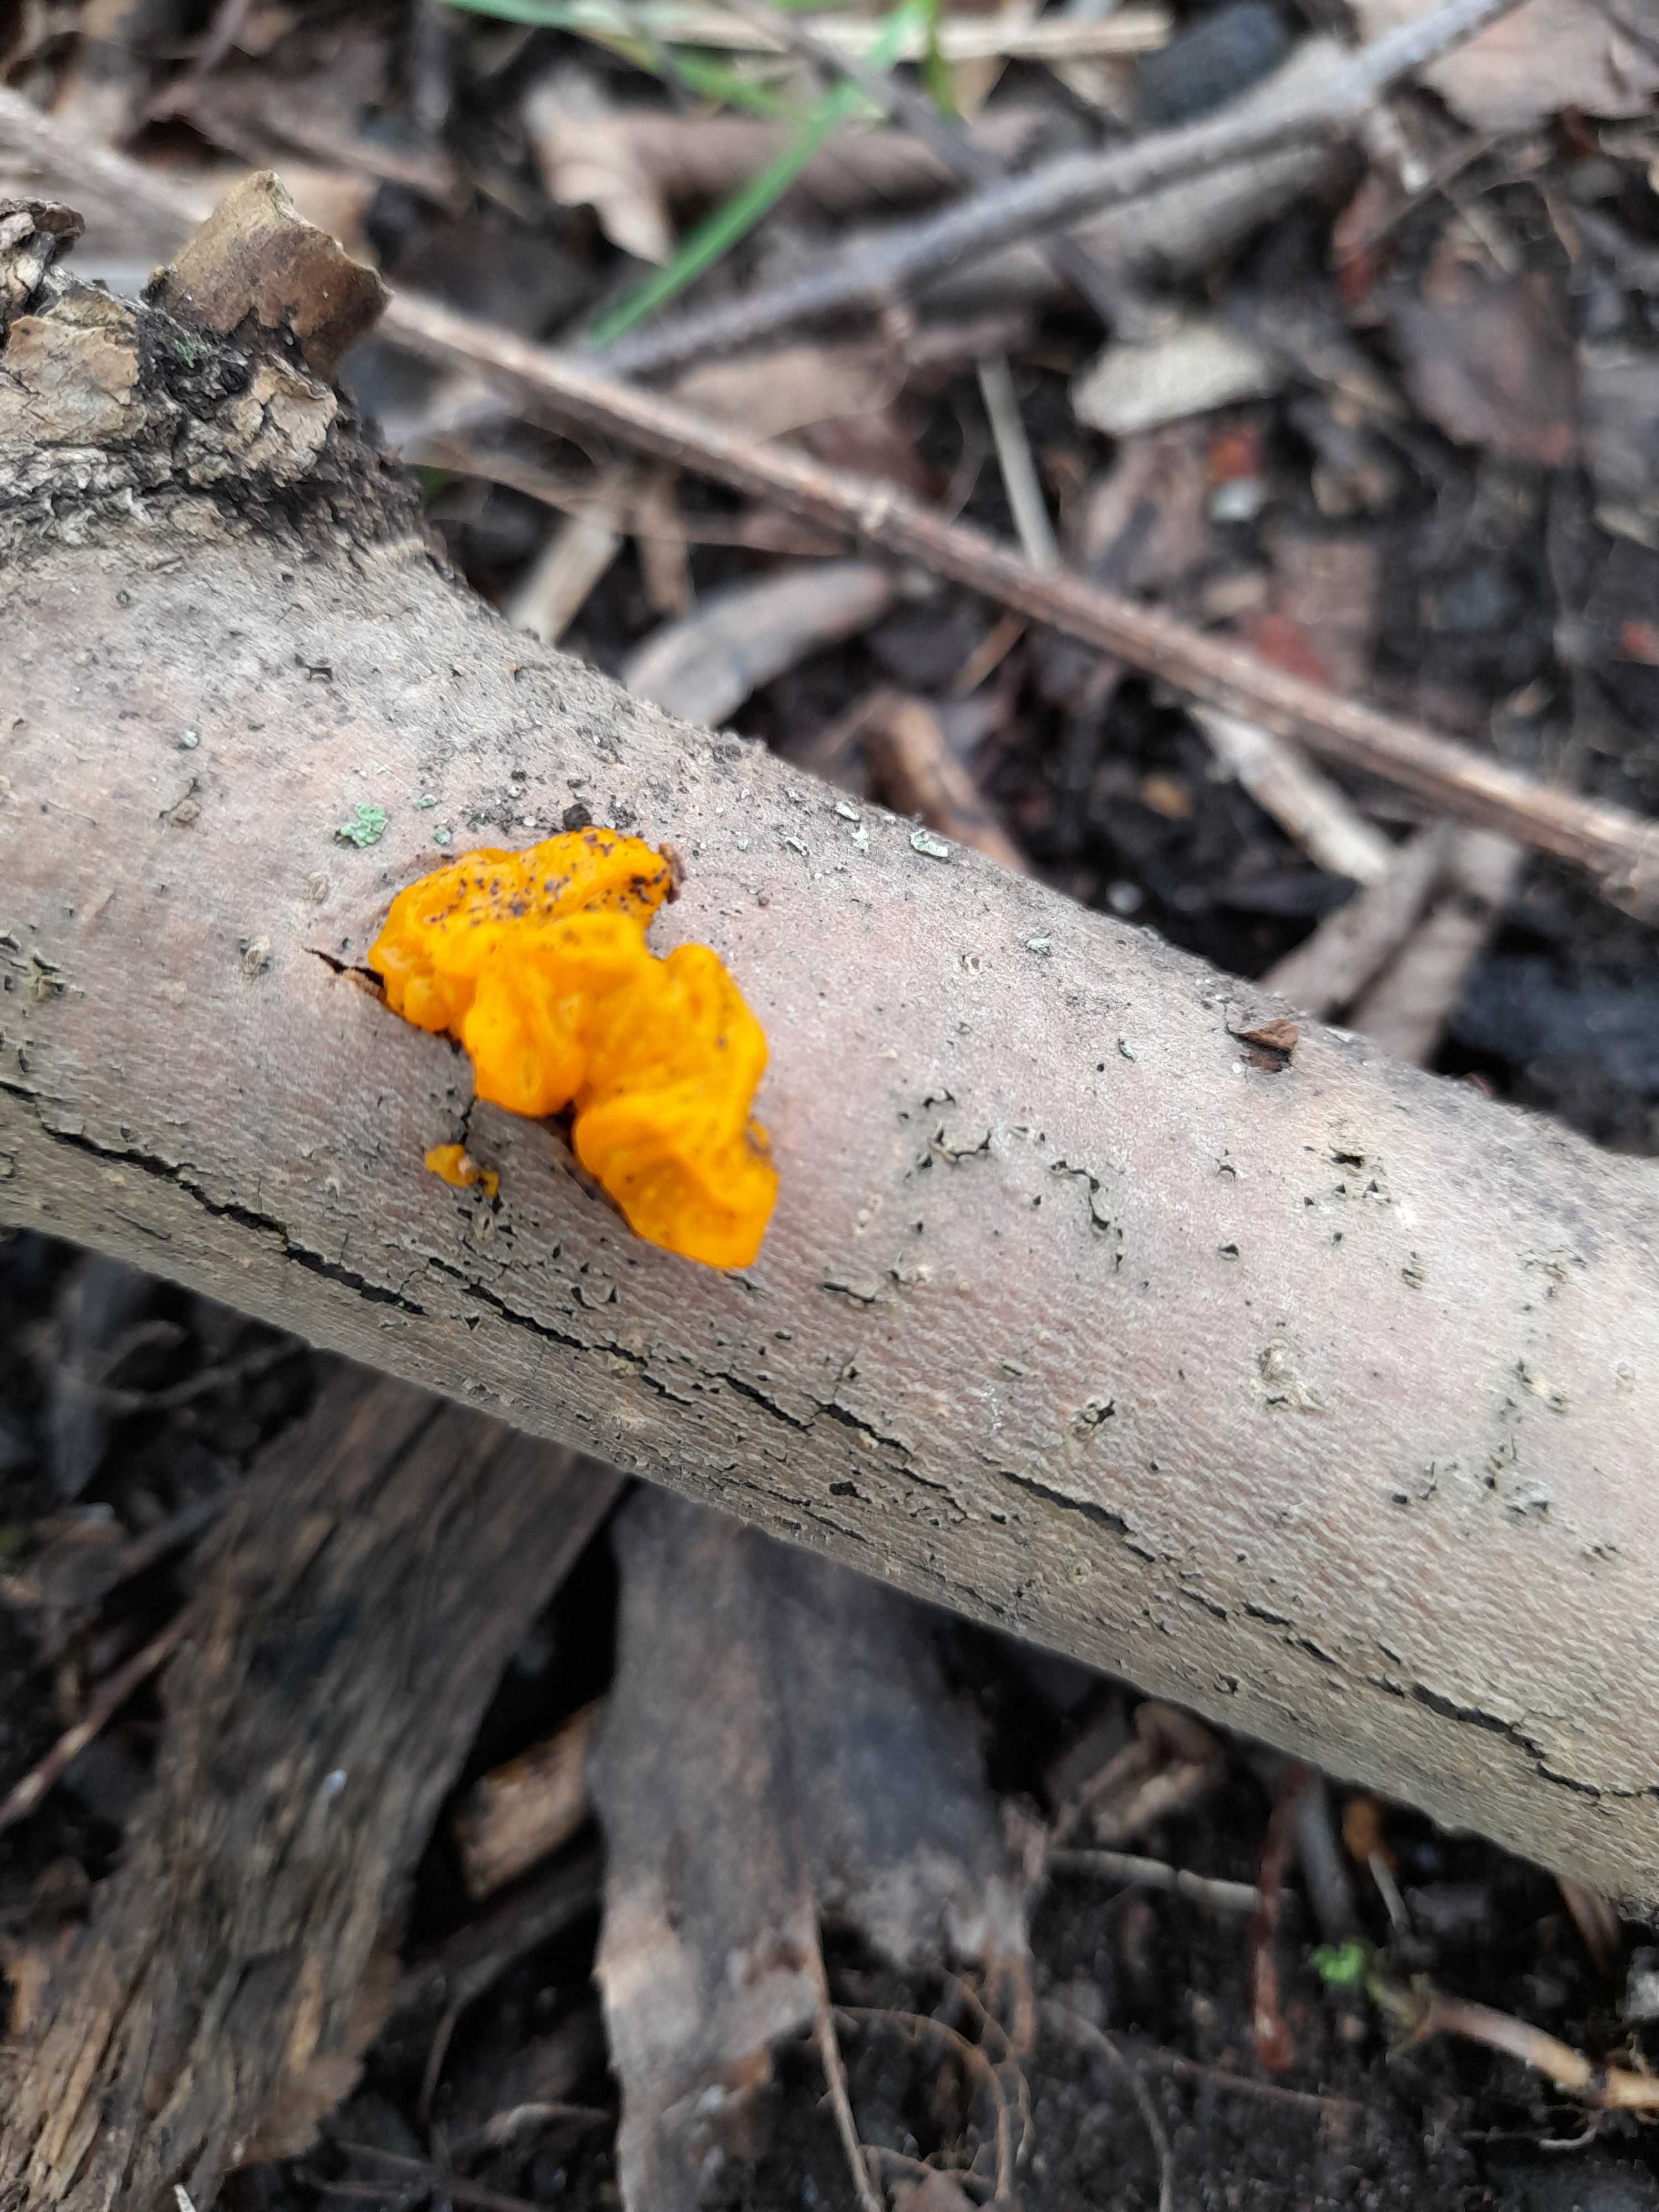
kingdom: Fungi
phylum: Basidiomycota
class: Tremellomycetes
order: Tremellales
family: Tremellaceae
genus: Tremella
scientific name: Tremella mesenterica
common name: gul bævresvamp
